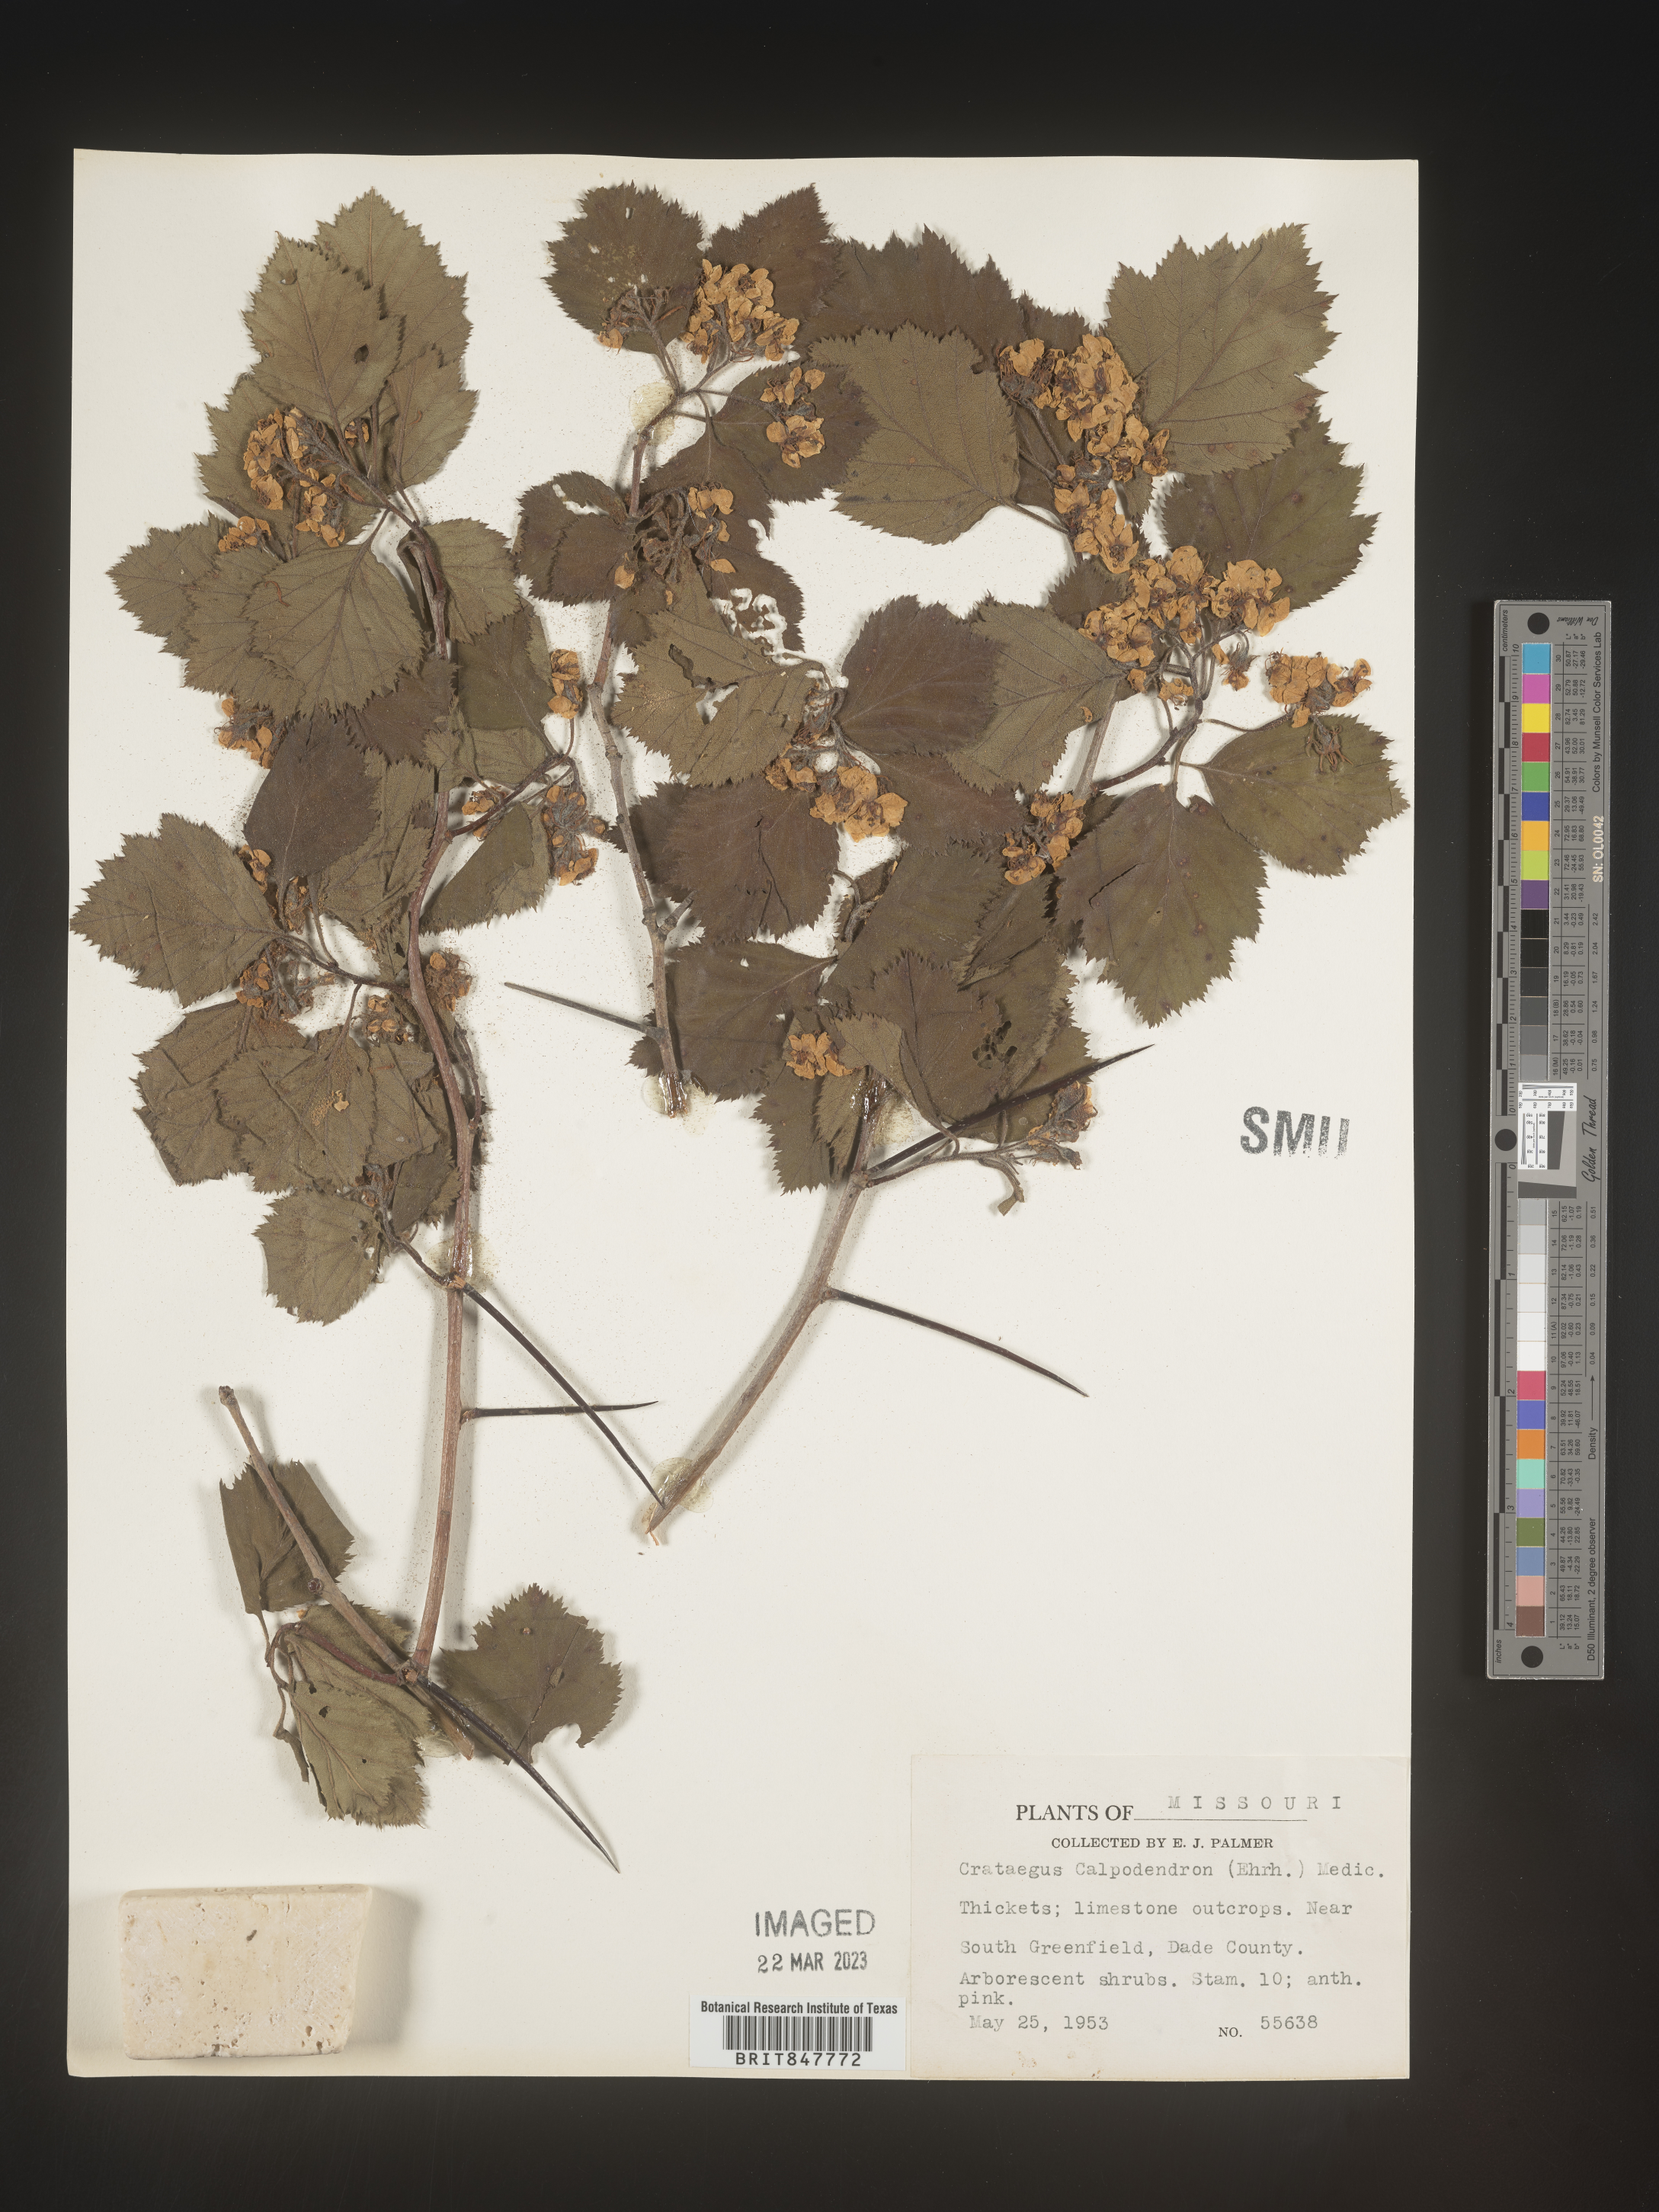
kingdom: Plantae
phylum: Tracheophyta
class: Magnoliopsida
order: Rosales
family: Rosaceae
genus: Crataegus
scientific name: Crataegus calpodendron
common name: Pear hawthorn
